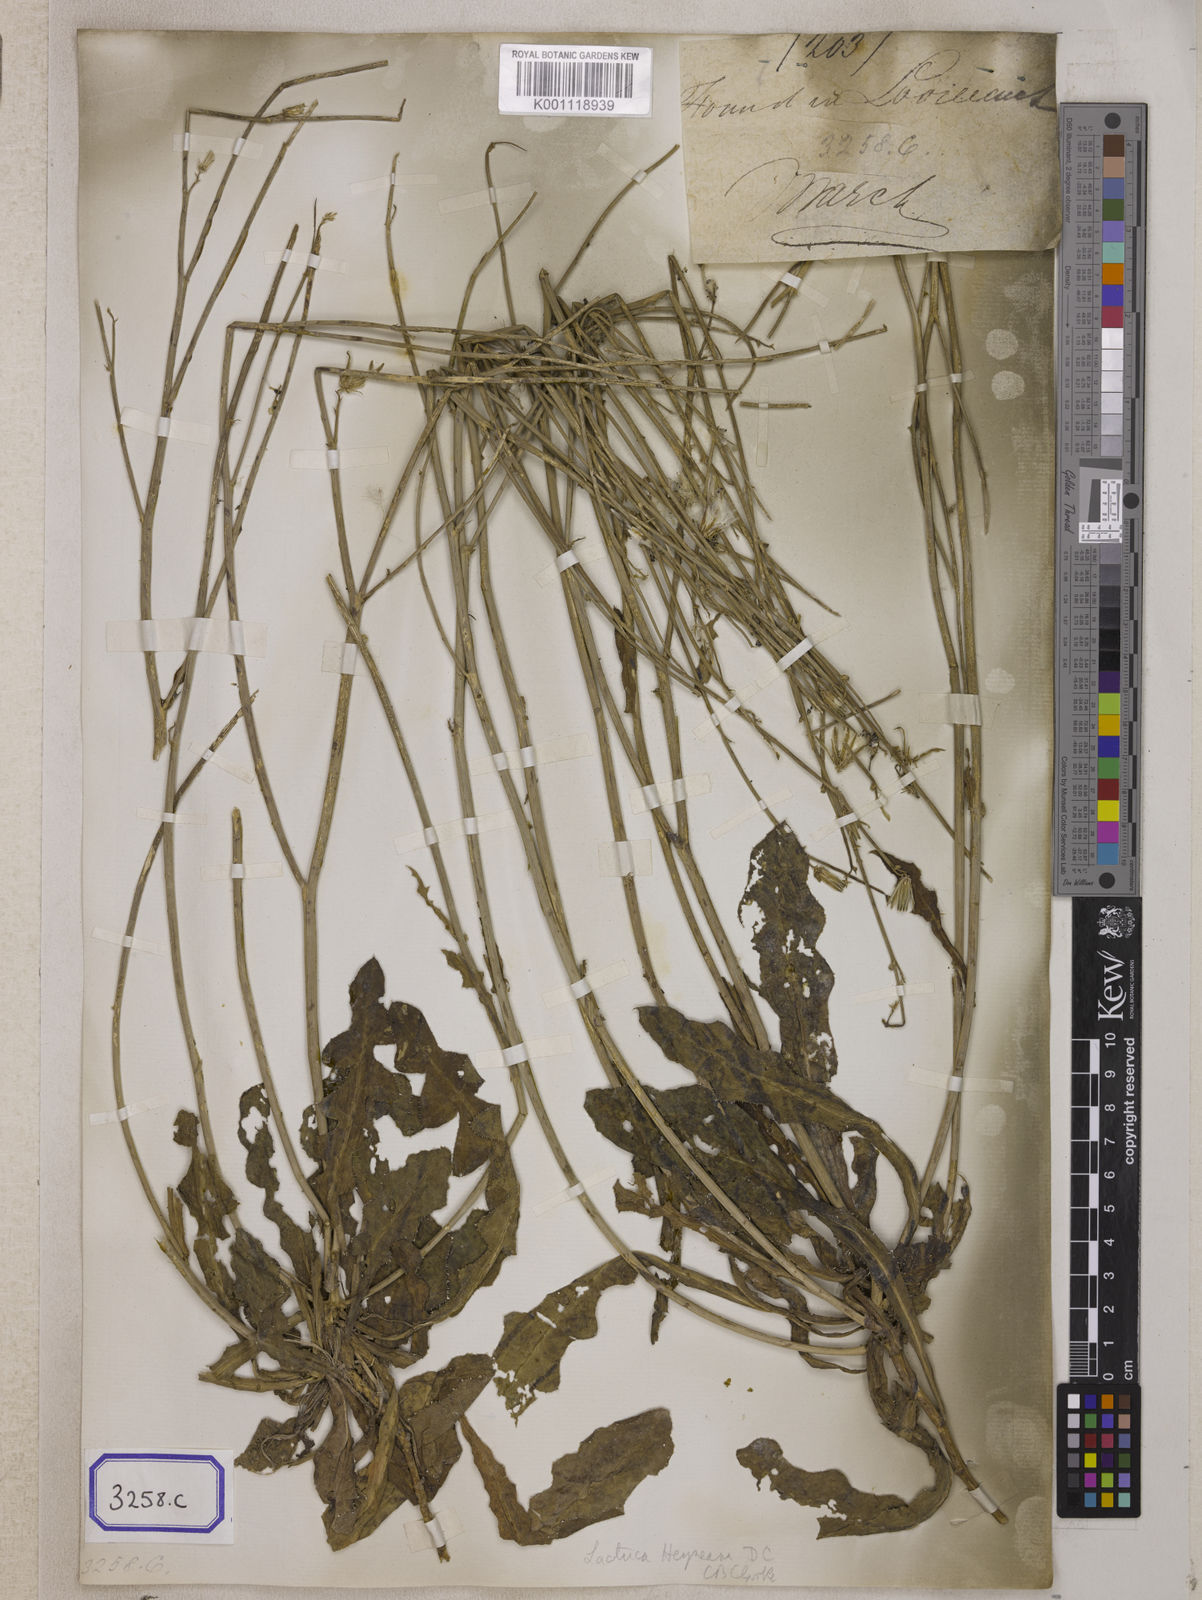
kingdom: Plantae
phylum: Tracheophyta
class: Magnoliopsida
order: Asterales
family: Asteraceae
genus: Launaea
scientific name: Launaea procumbens
